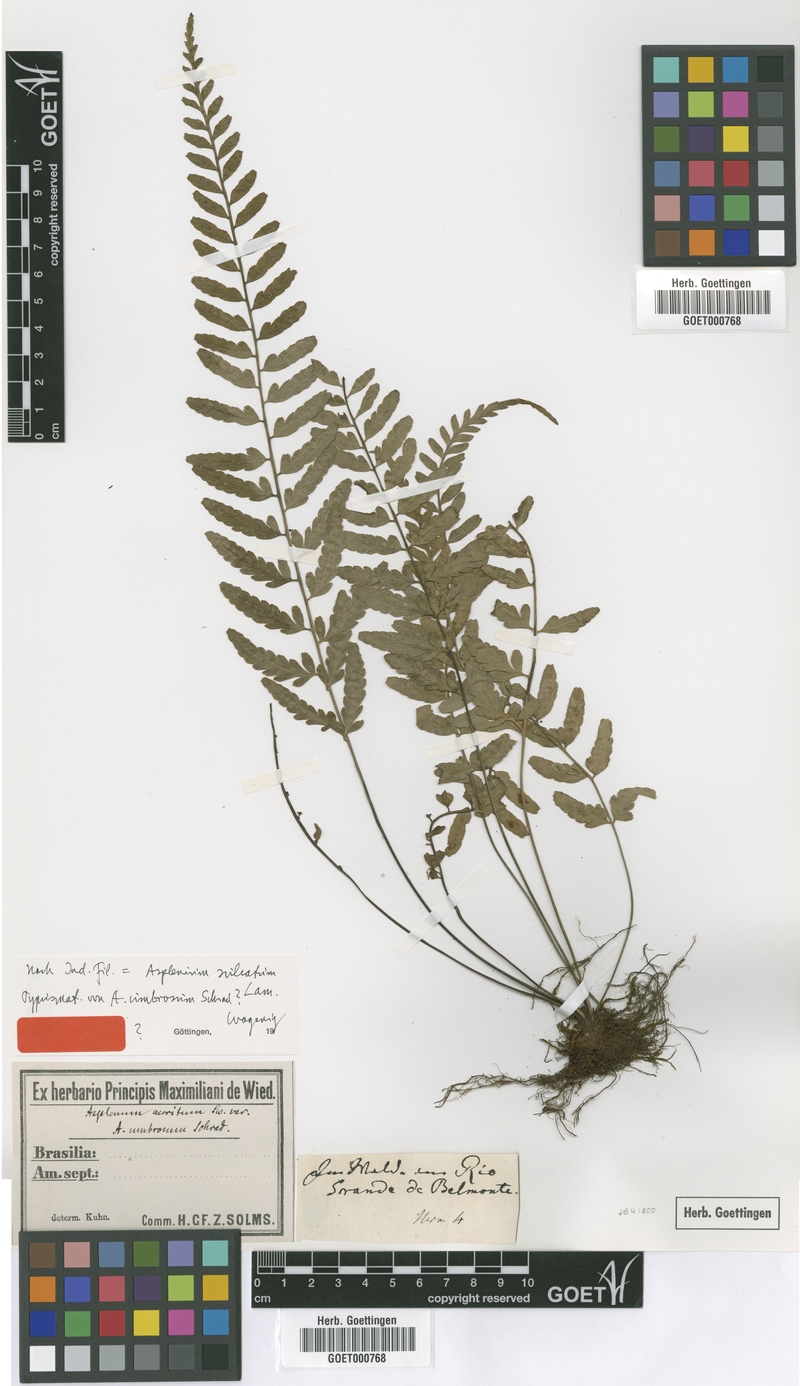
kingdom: Plantae
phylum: Tracheophyta
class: Polypodiopsida
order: Polypodiales
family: Aspleniaceae
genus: Asplenium
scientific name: Asplenium auritum
